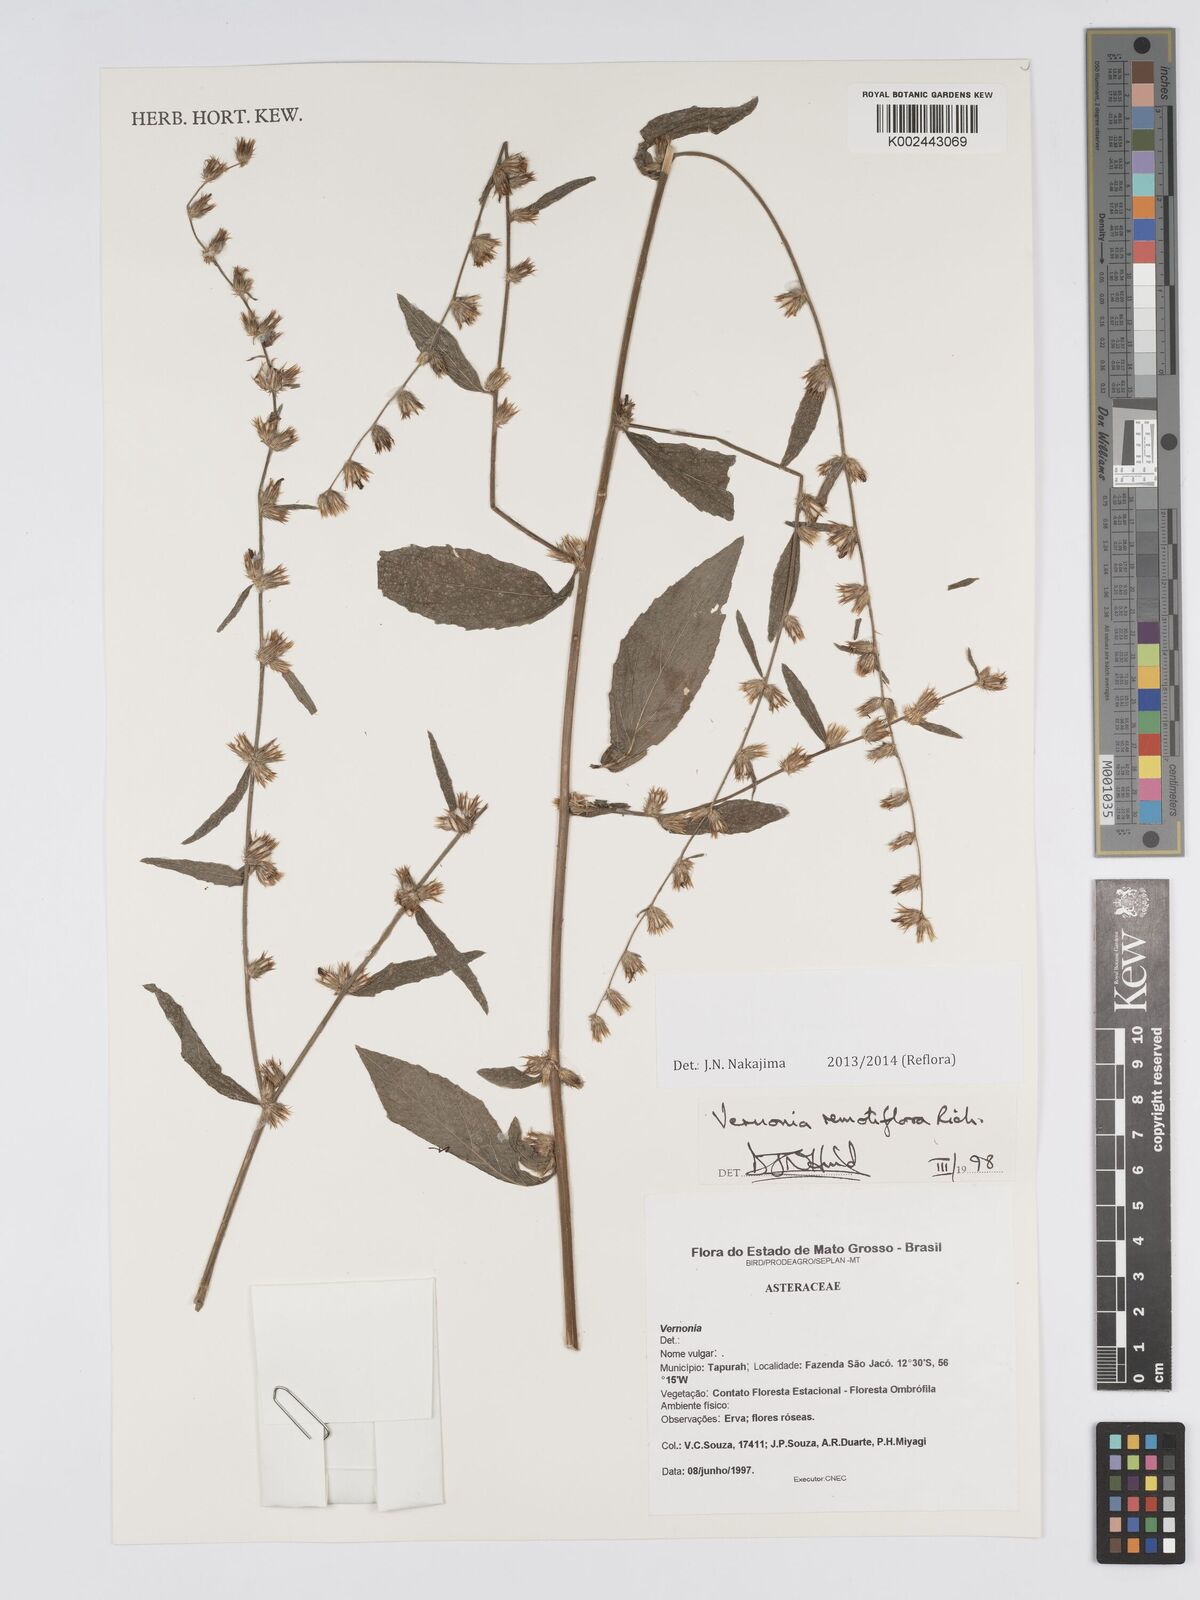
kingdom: Plantae
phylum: Tracheophyta
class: Magnoliopsida
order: Asterales
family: Asteraceae
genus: Lepidaploa
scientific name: Lepidaploa remotiflora
